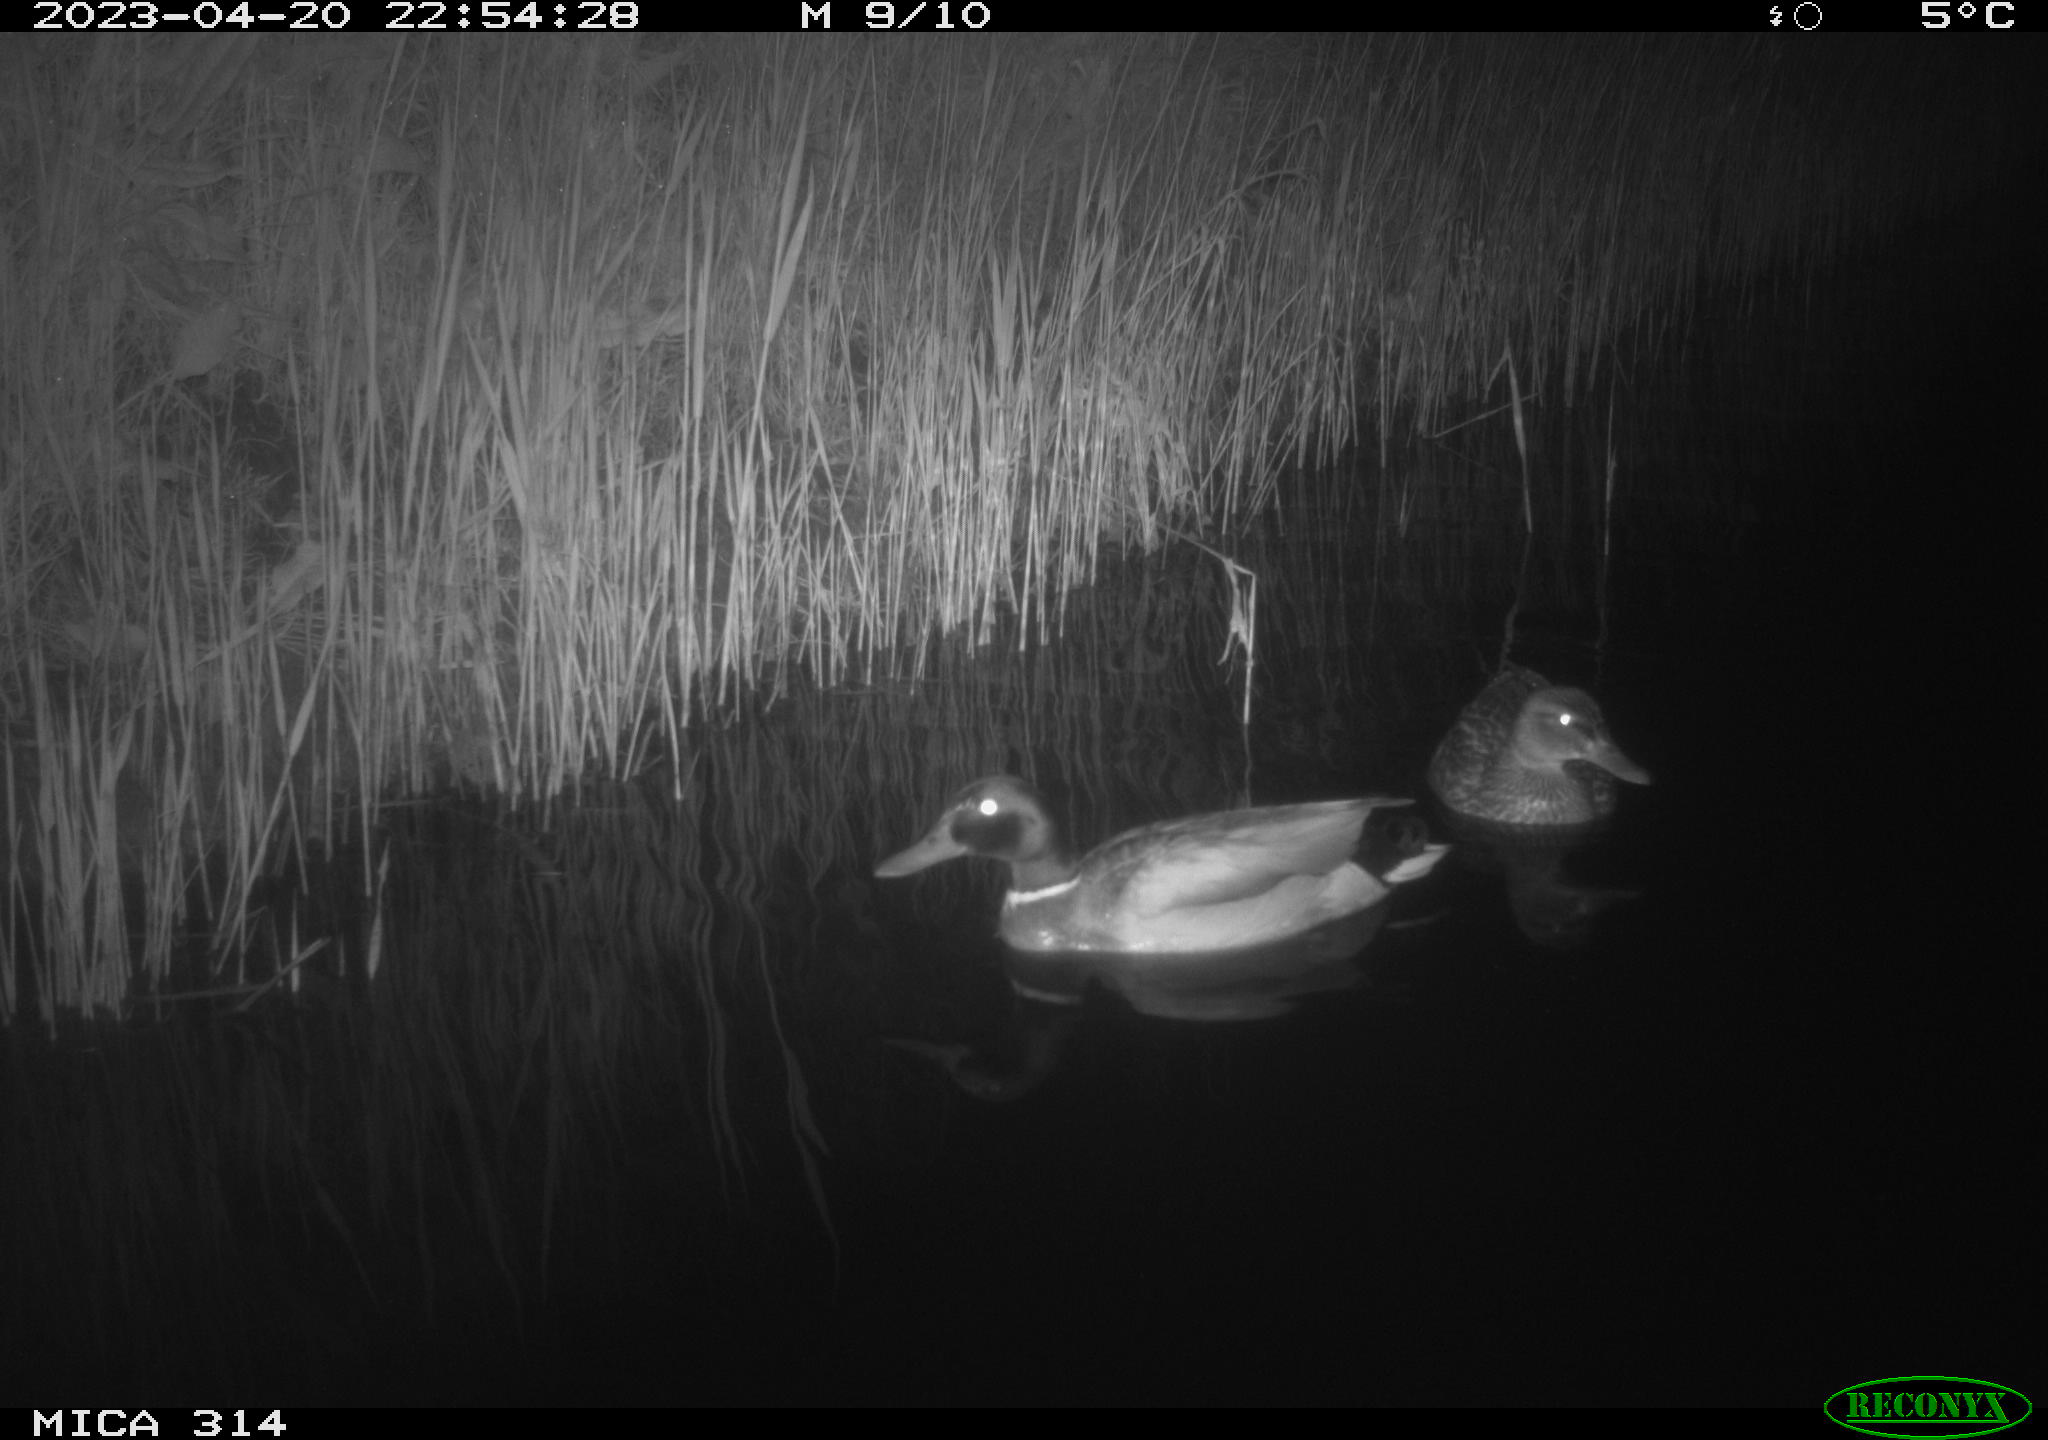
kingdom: Animalia
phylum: Chordata
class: Aves
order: Anseriformes
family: Anatidae
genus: Anas
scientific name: Anas
